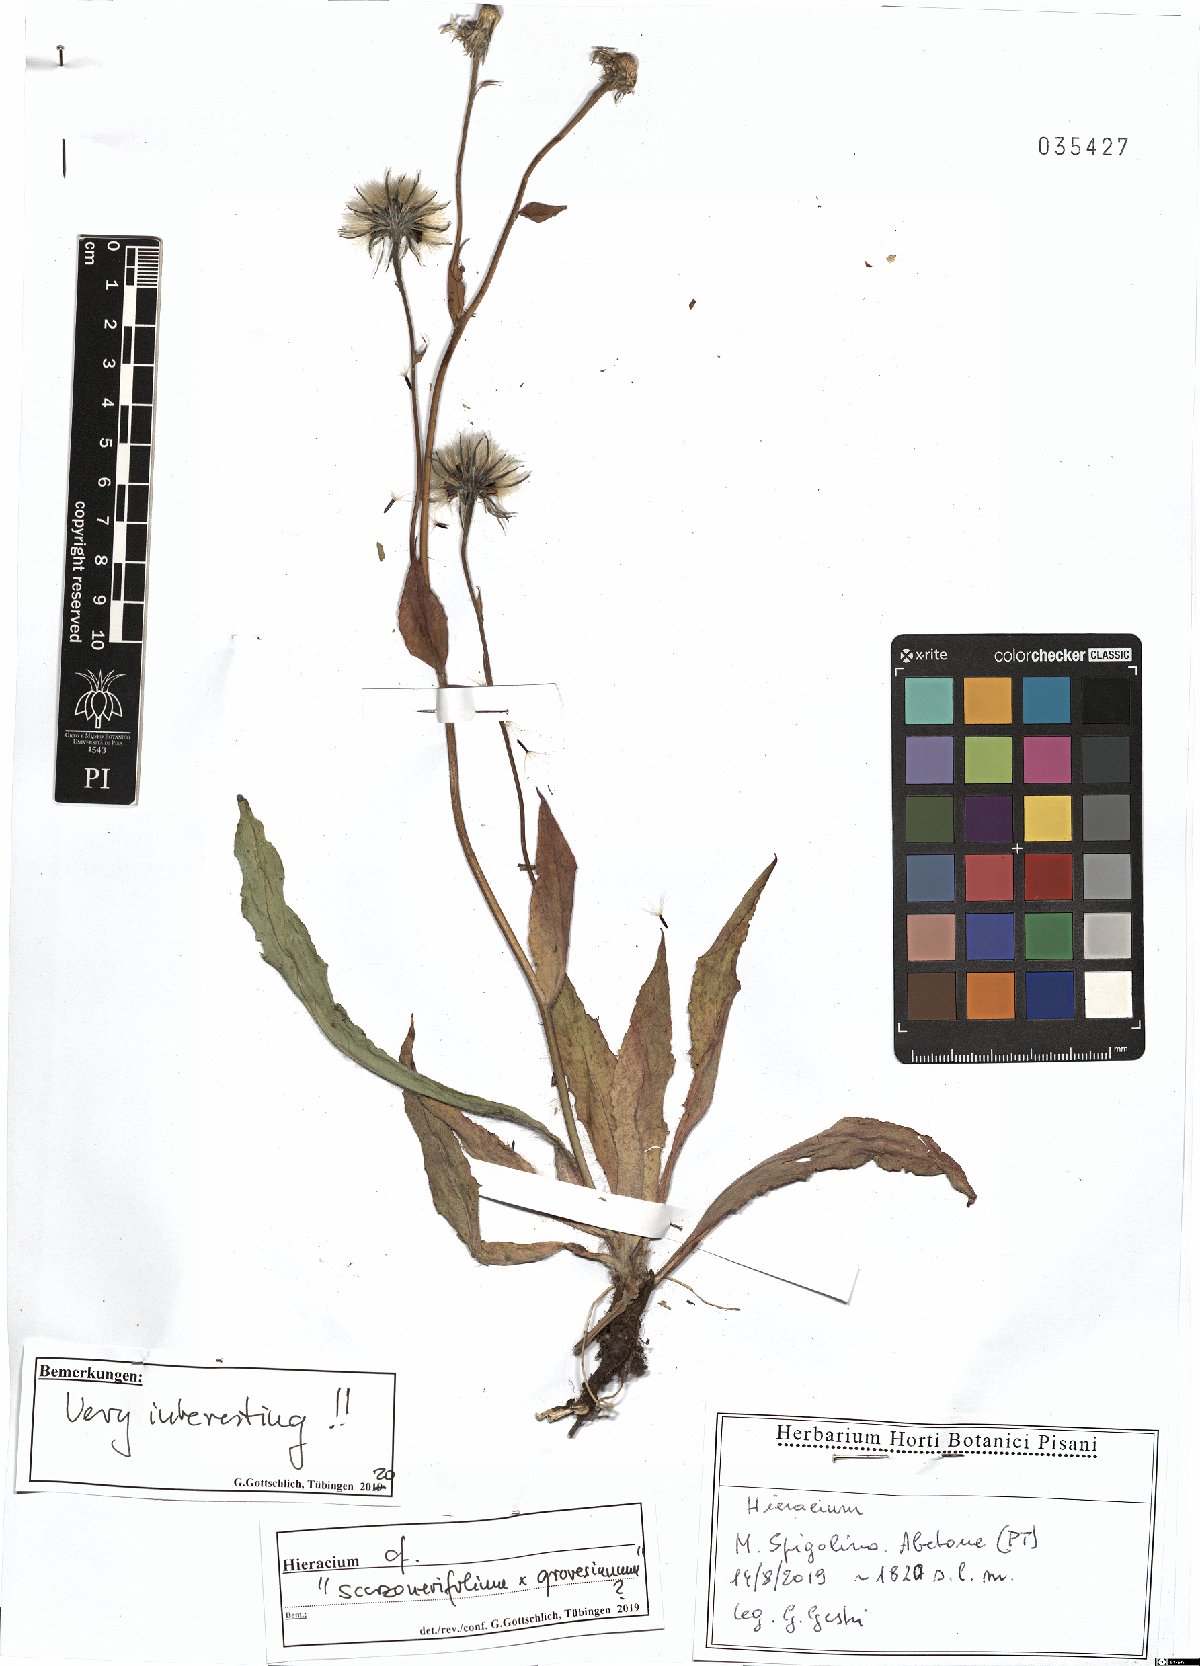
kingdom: Plantae
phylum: Tracheophyta
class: Magnoliopsida
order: Asterales
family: Asteraceae
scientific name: Asteraceae
